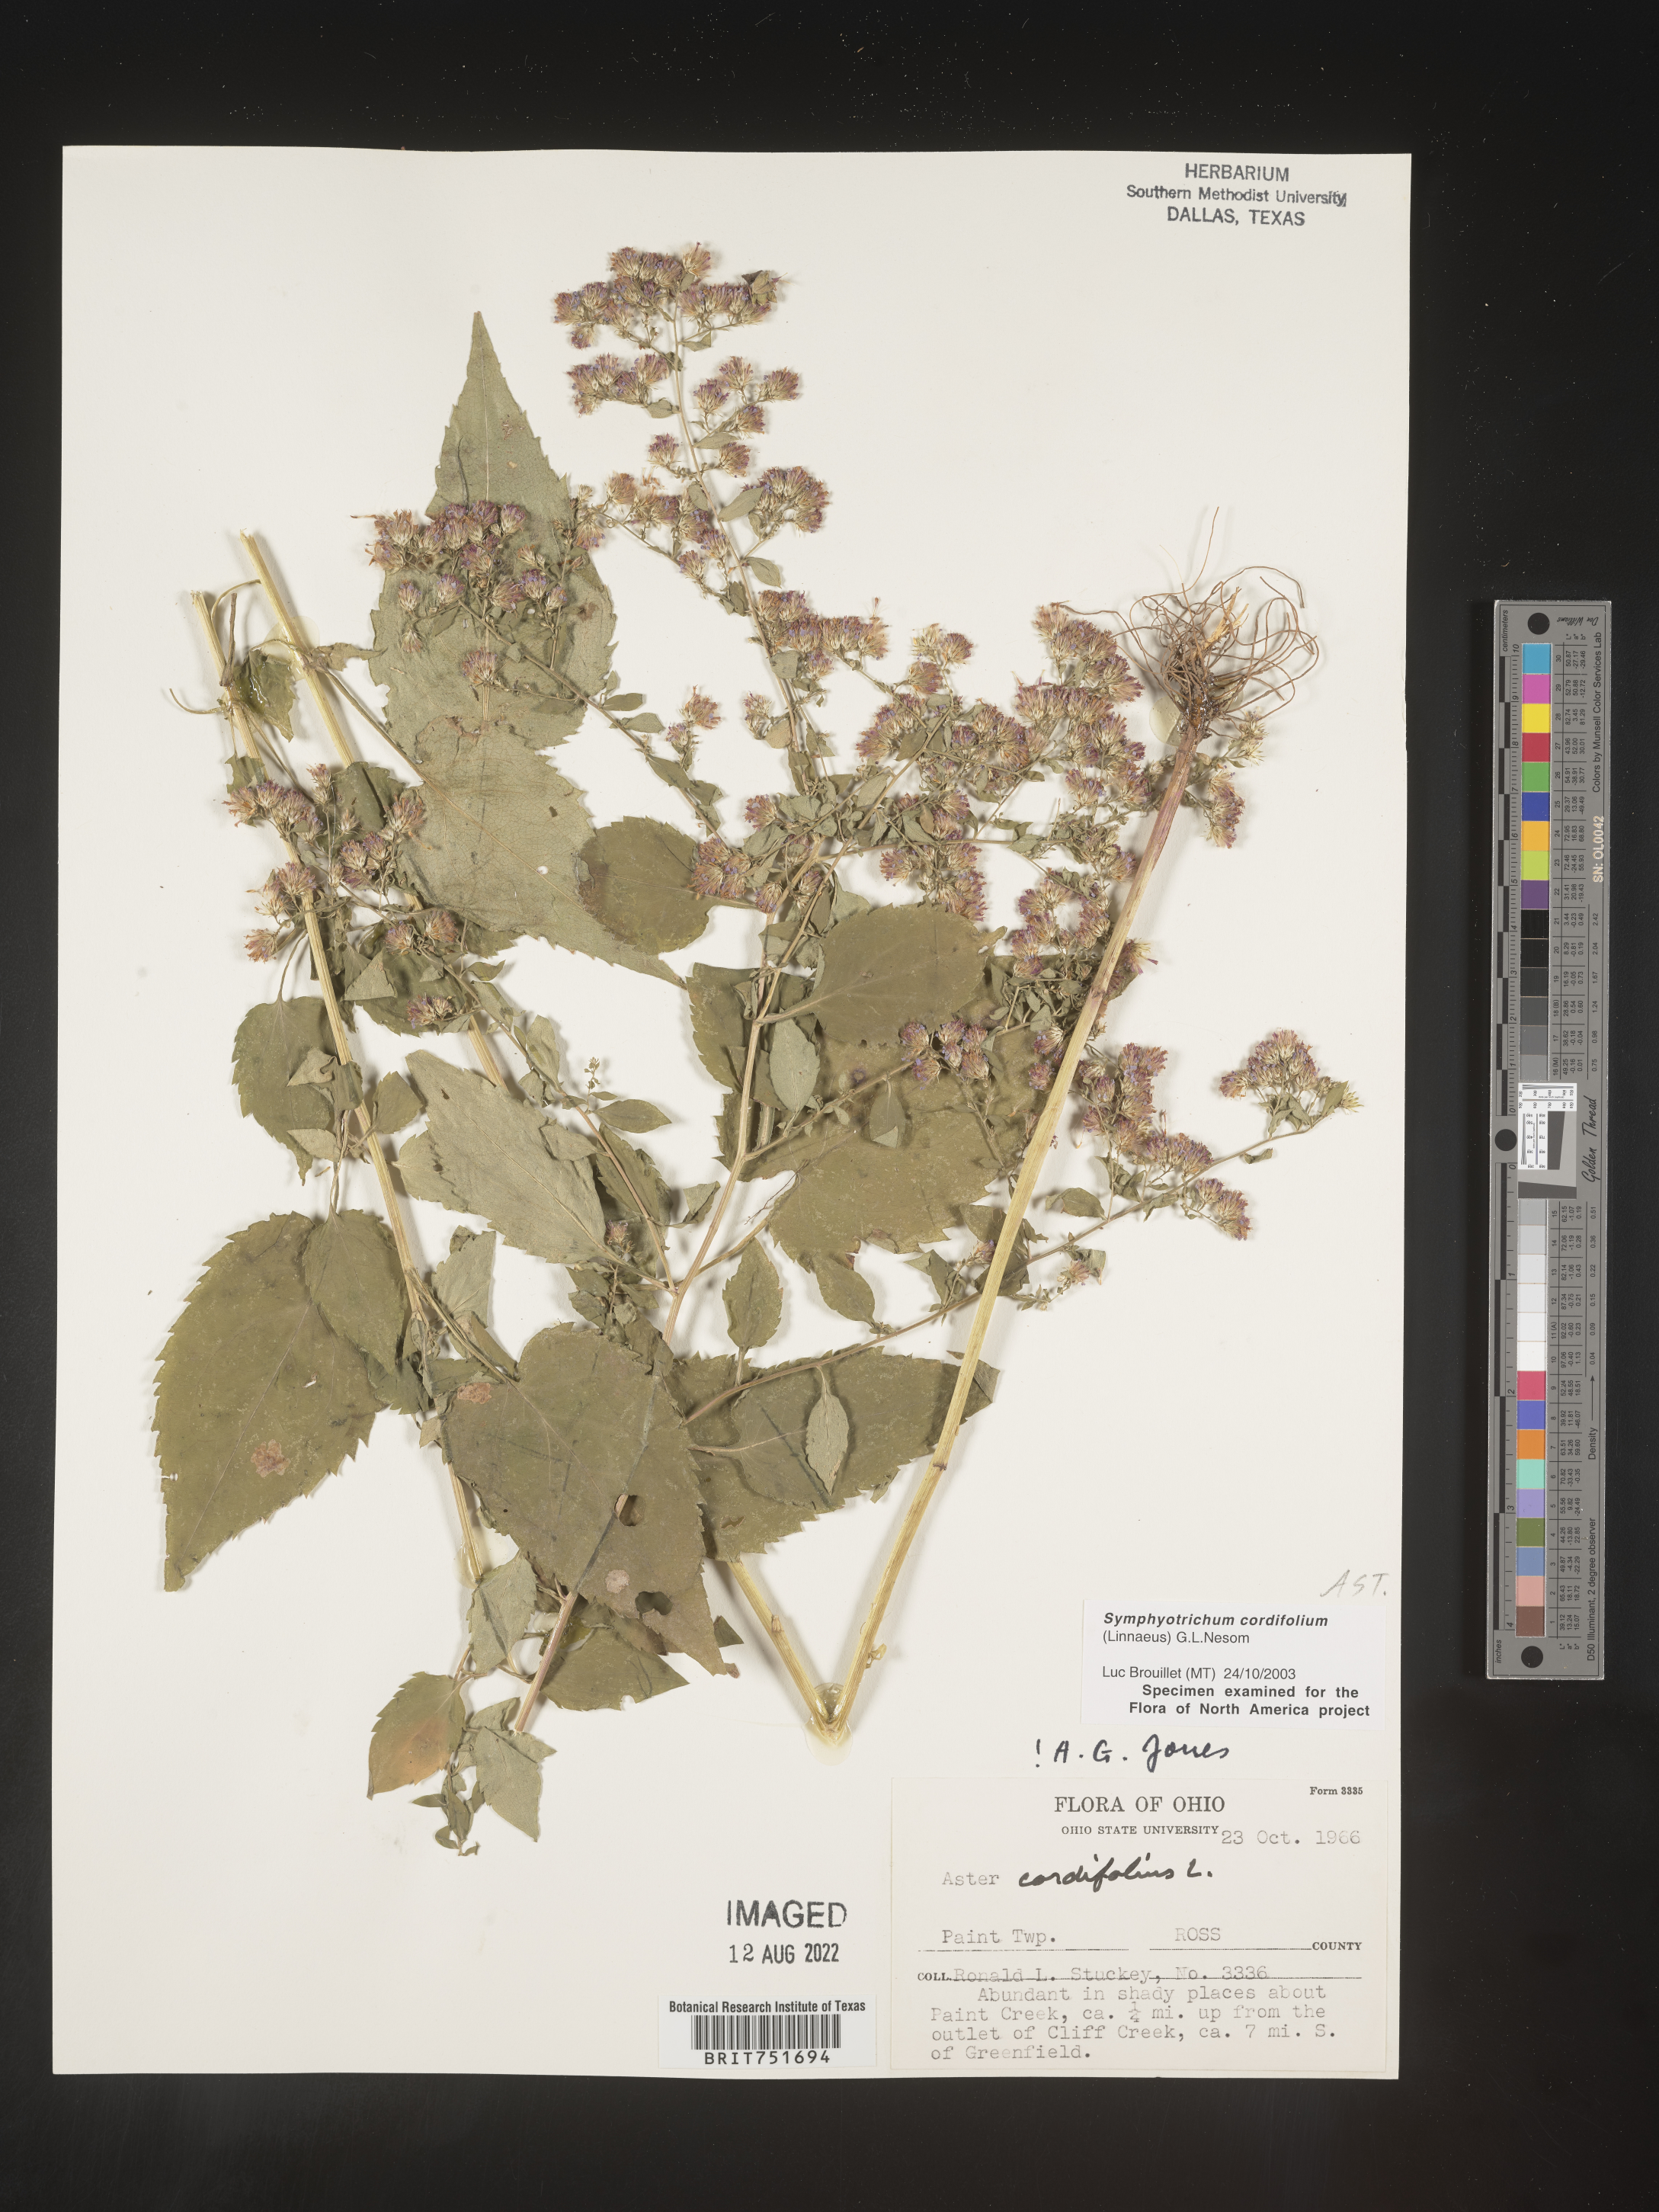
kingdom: Plantae
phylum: Tracheophyta
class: Magnoliopsida
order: Asterales
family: Asteraceae
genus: Symphyotrichum
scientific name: Symphyotrichum cordifolium
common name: Beeweed
